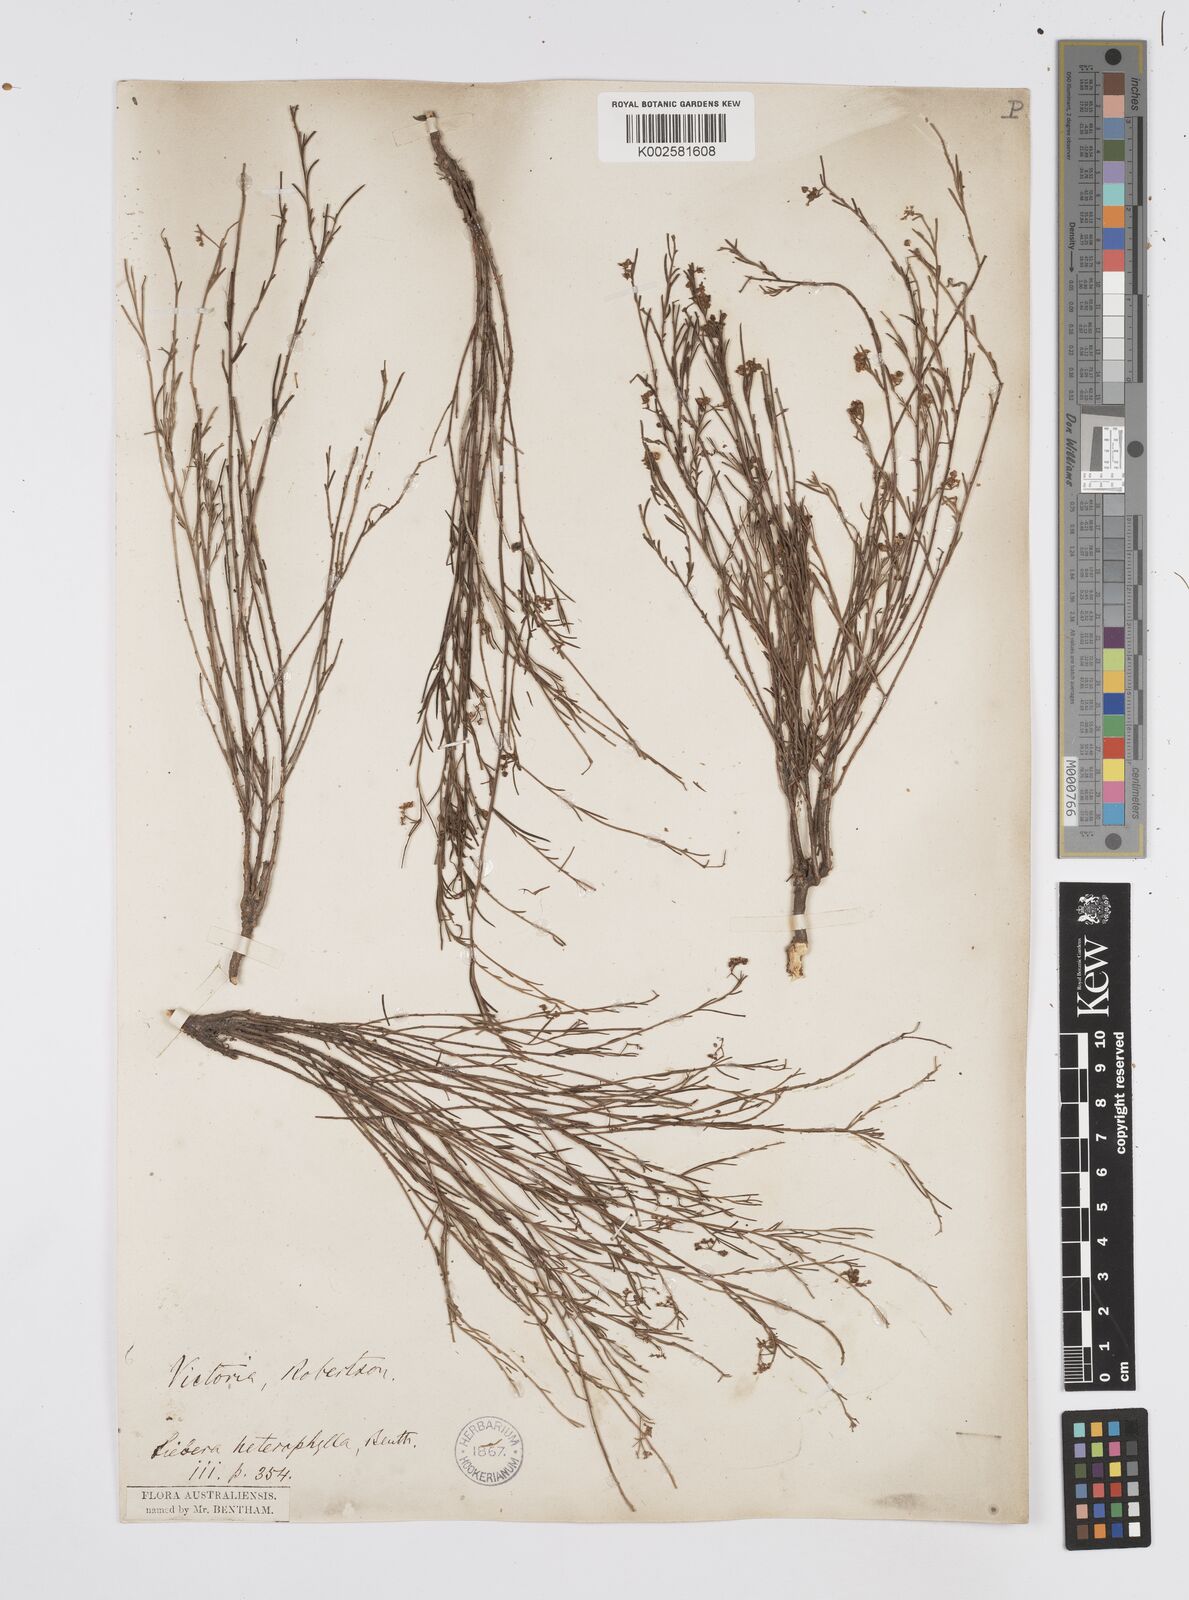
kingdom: Plantae
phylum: Tracheophyta
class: Magnoliopsida
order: Apiales
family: Apiaceae
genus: Platysace
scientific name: Platysace heterophylla
